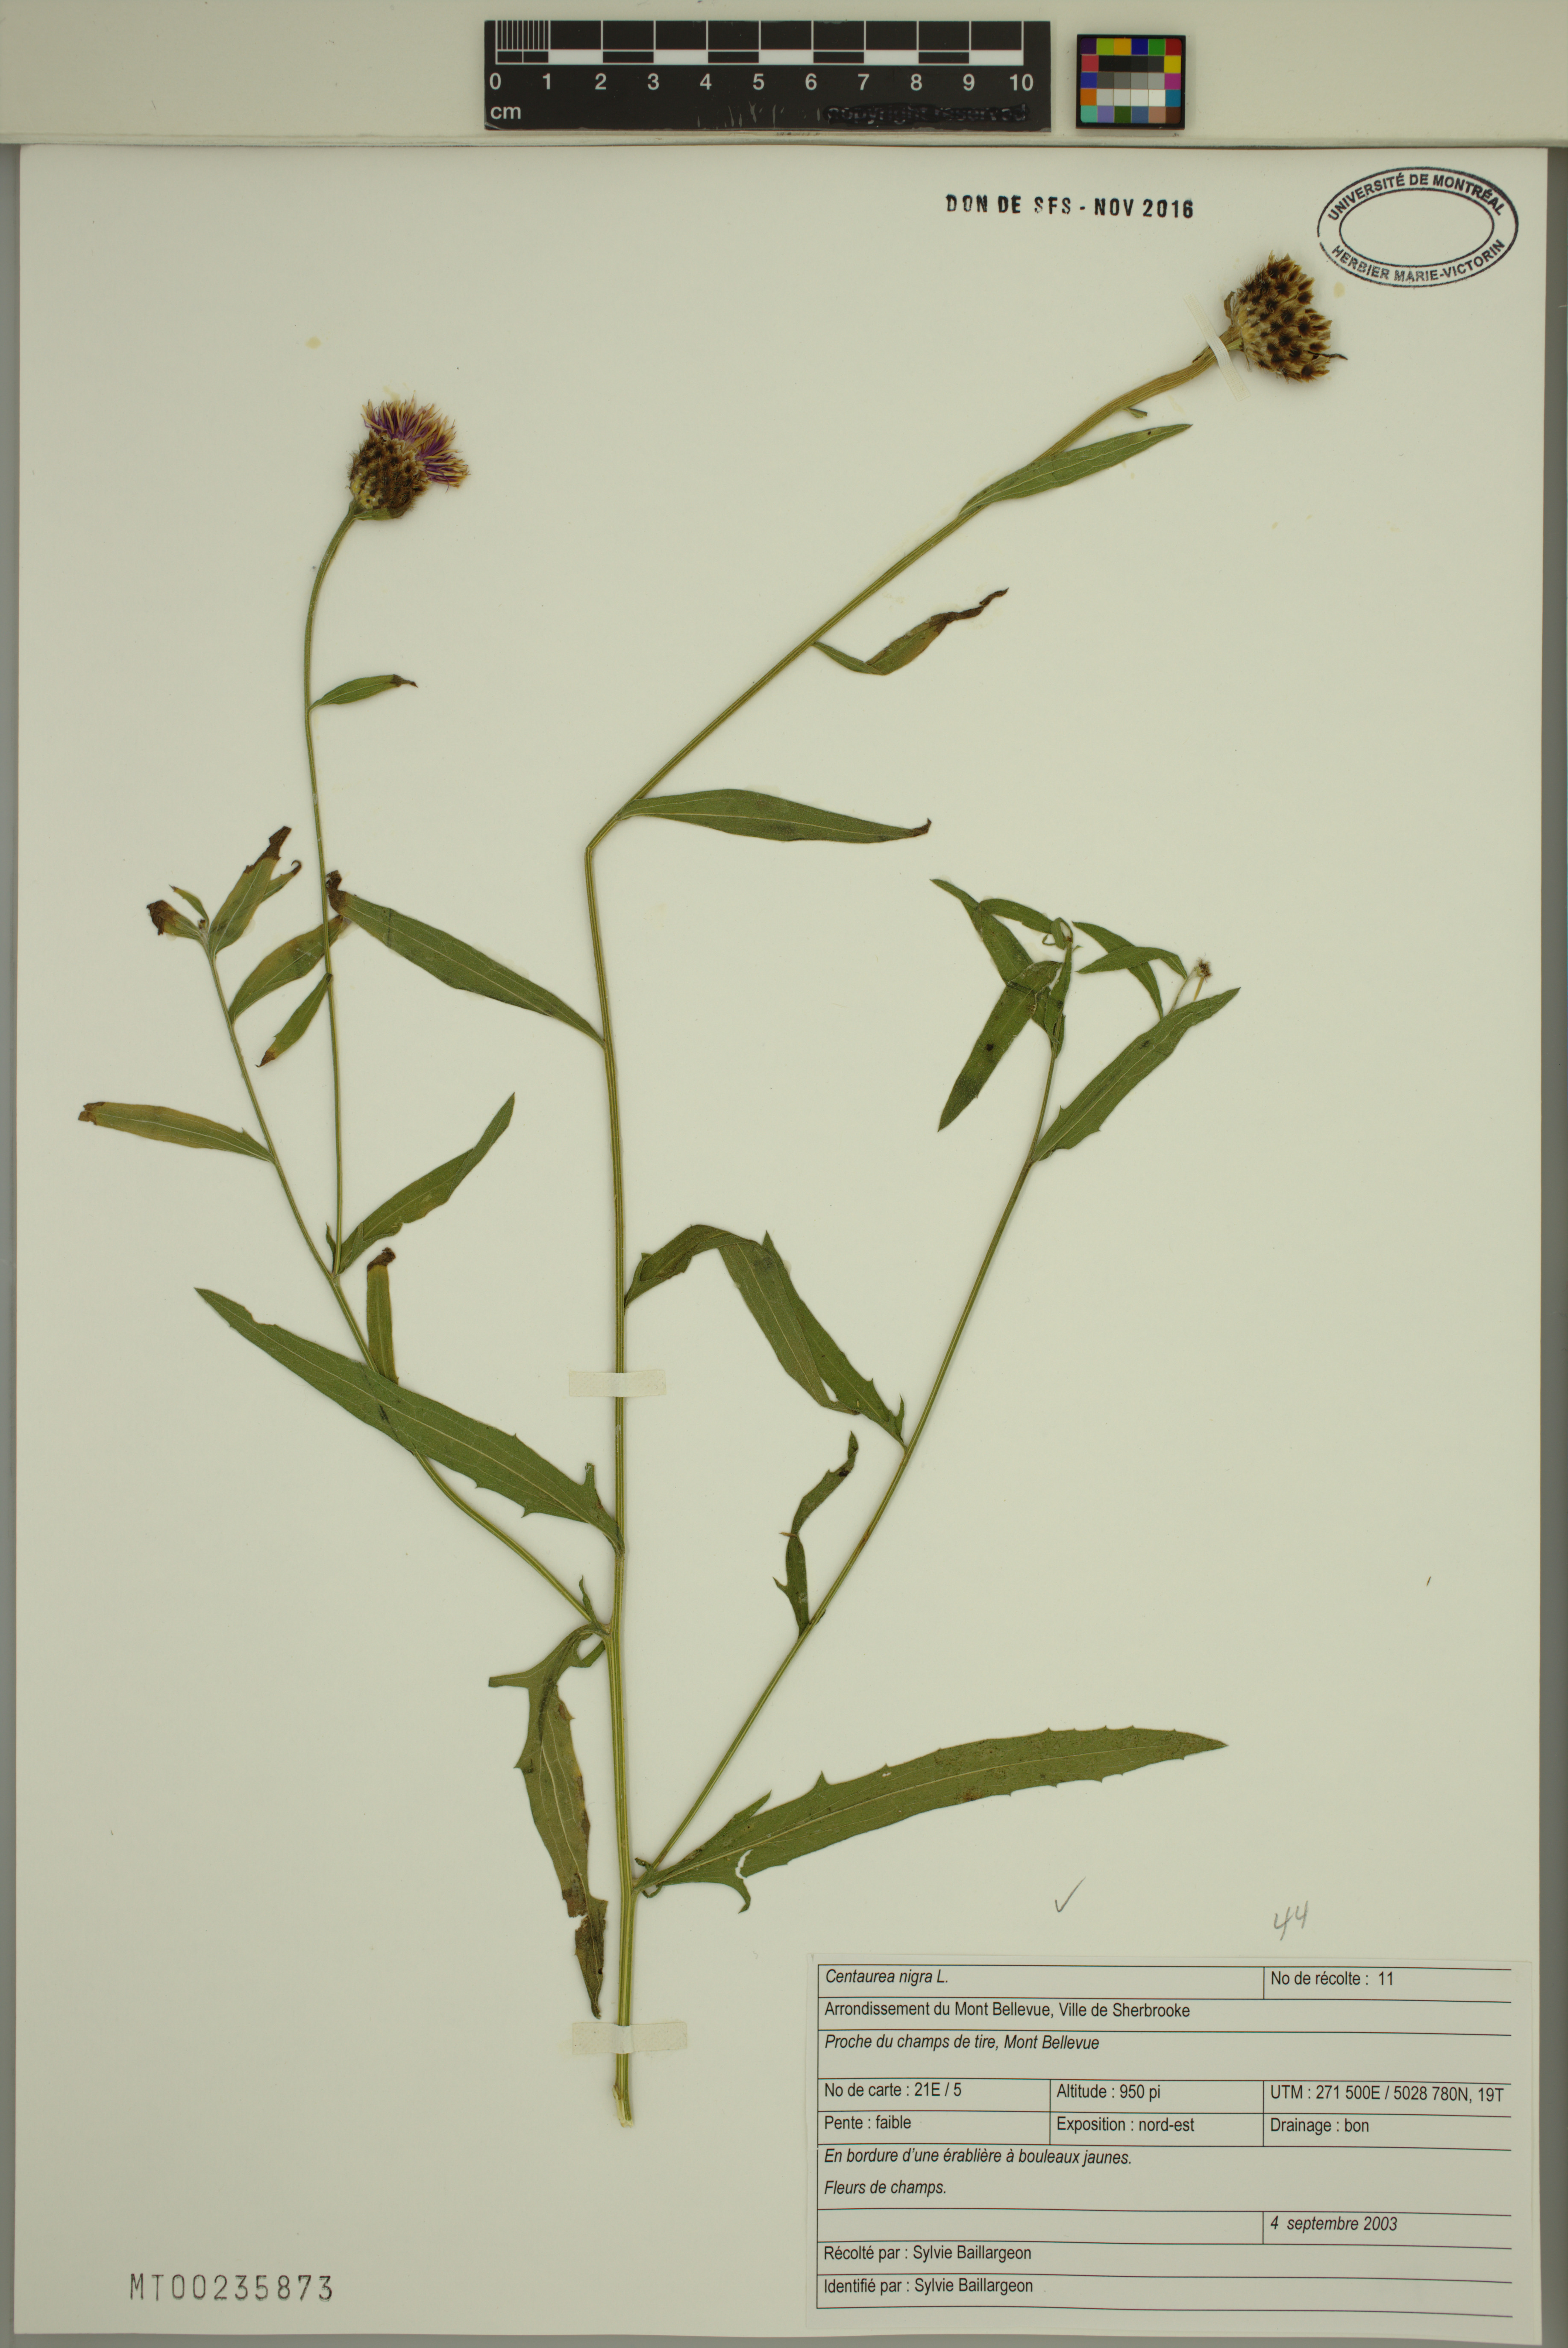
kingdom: Plantae
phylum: Tracheophyta
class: Magnoliopsida
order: Asterales
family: Asteraceae
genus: Centaurea
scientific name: Centaurea nigra
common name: Lesser knapweed
